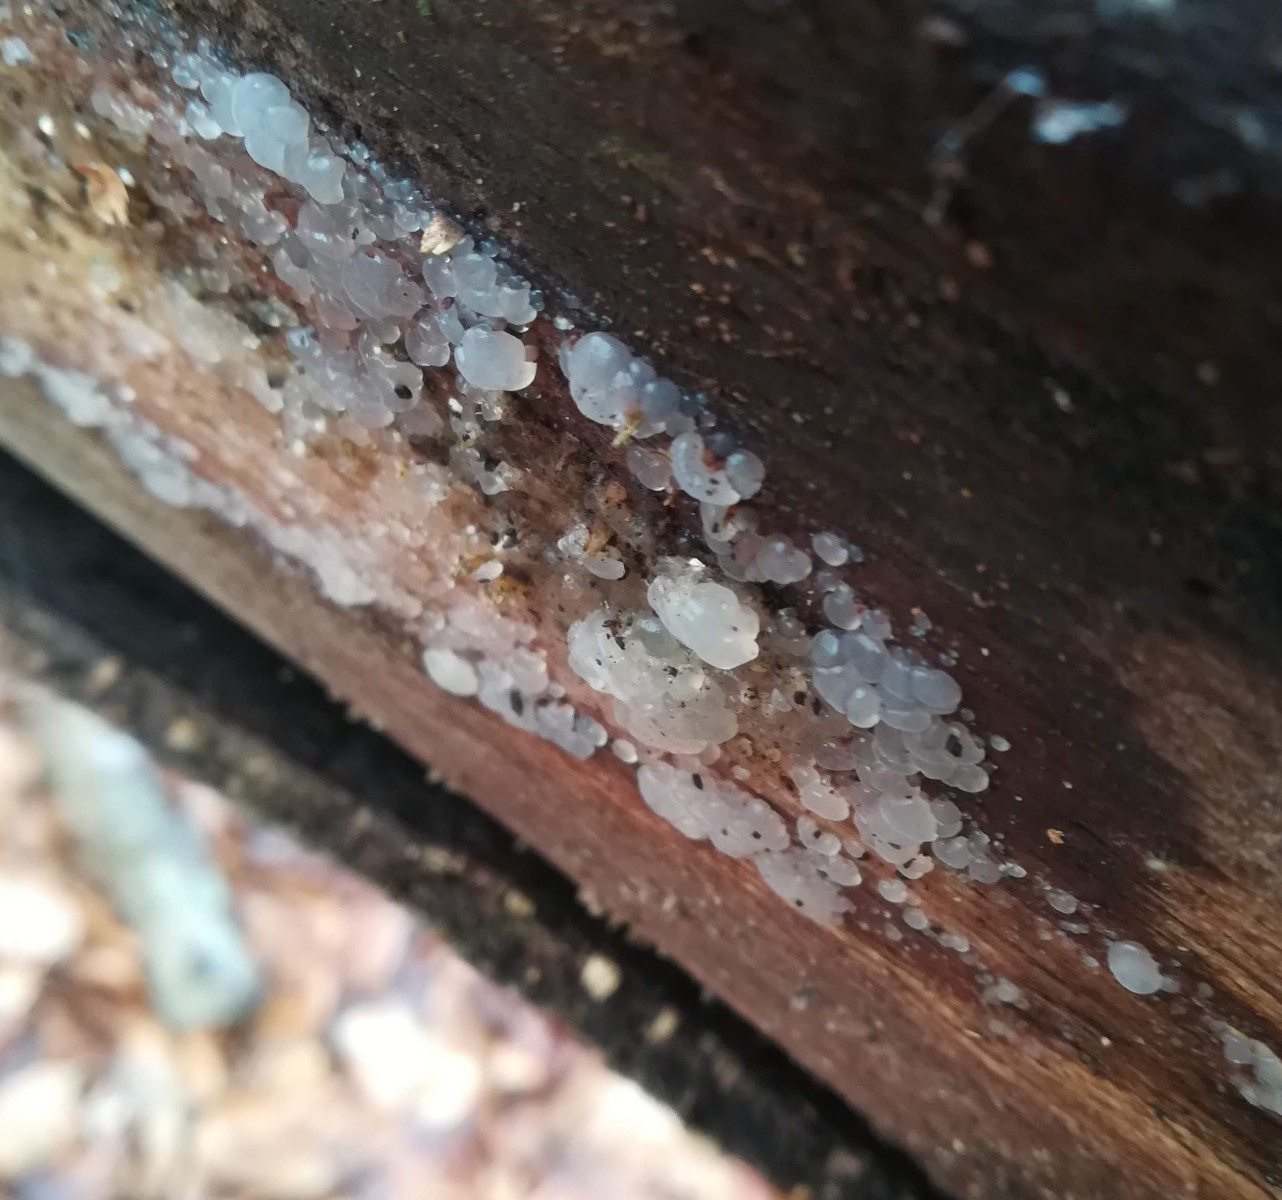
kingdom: Fungi
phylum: Basidiomycota
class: Agaricomycetes
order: Auriculariales
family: Hyaloriaceae
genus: Myxarium
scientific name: Myxarium nucleatum
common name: klar bævretop
